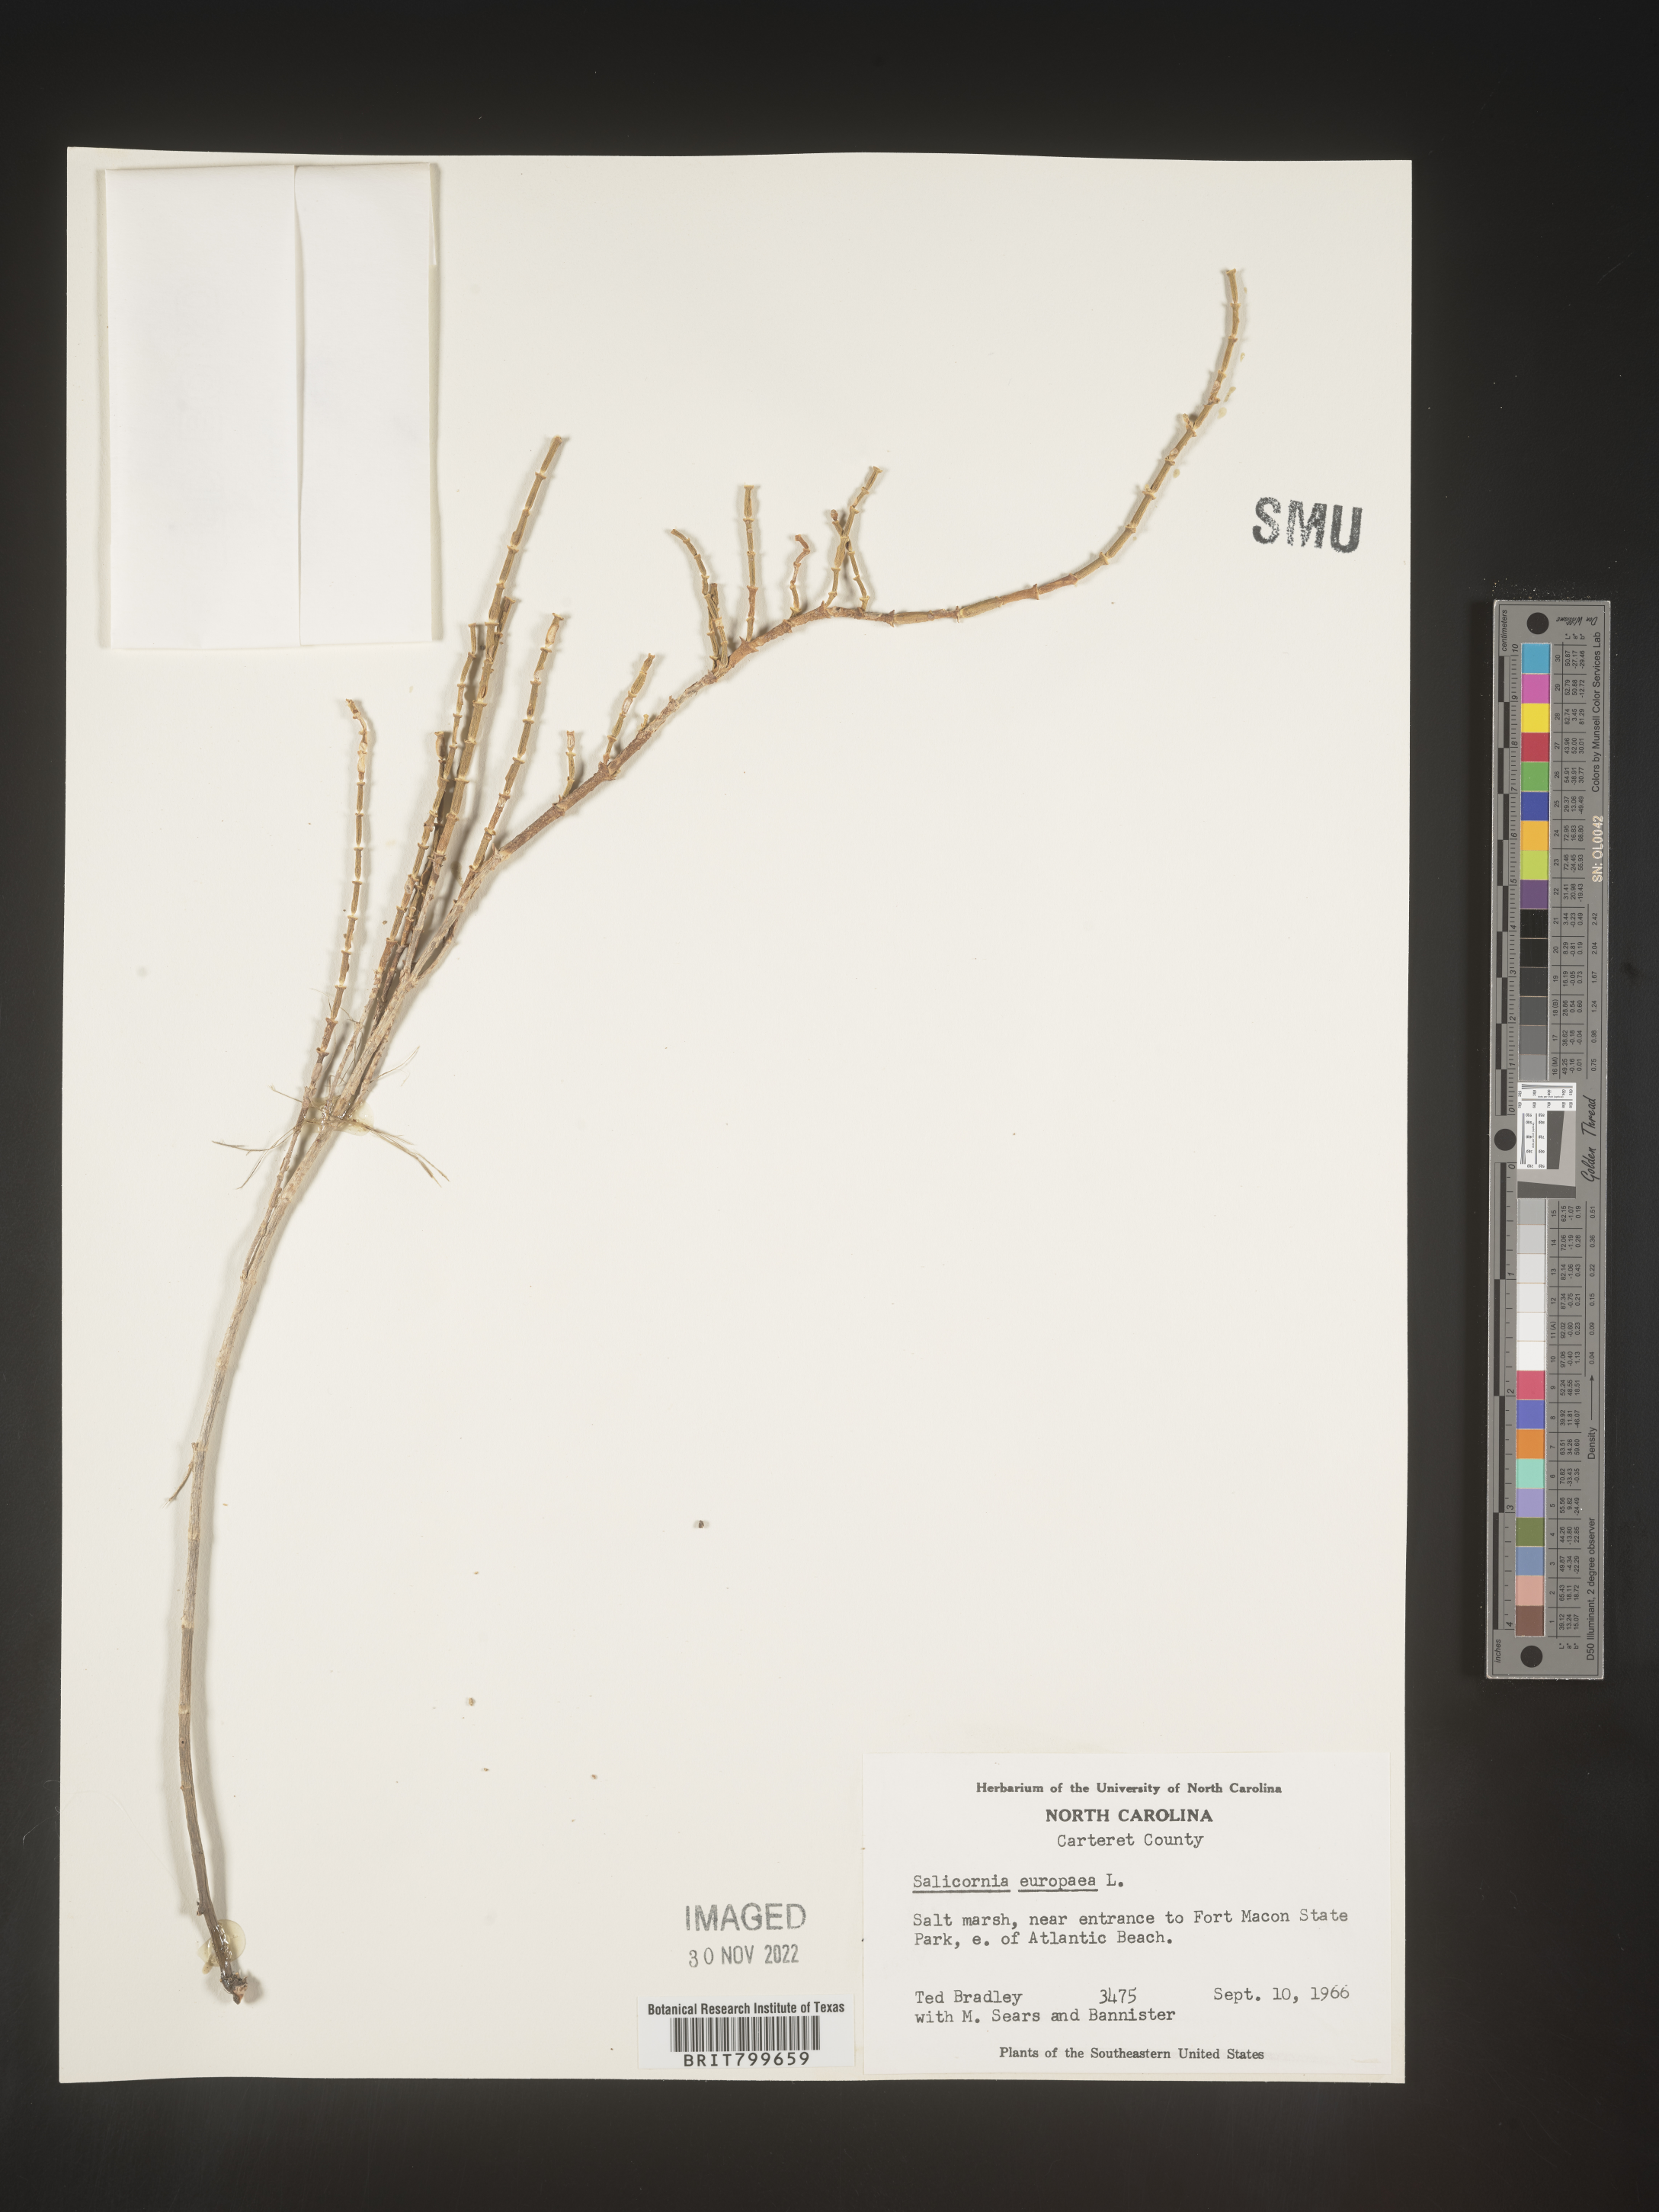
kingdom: Plantae
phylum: Tracheophyta
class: Magnoliopsida
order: Caryophyllales
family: Amaranthaceae
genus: Salicornia
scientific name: Salicornia europaea
